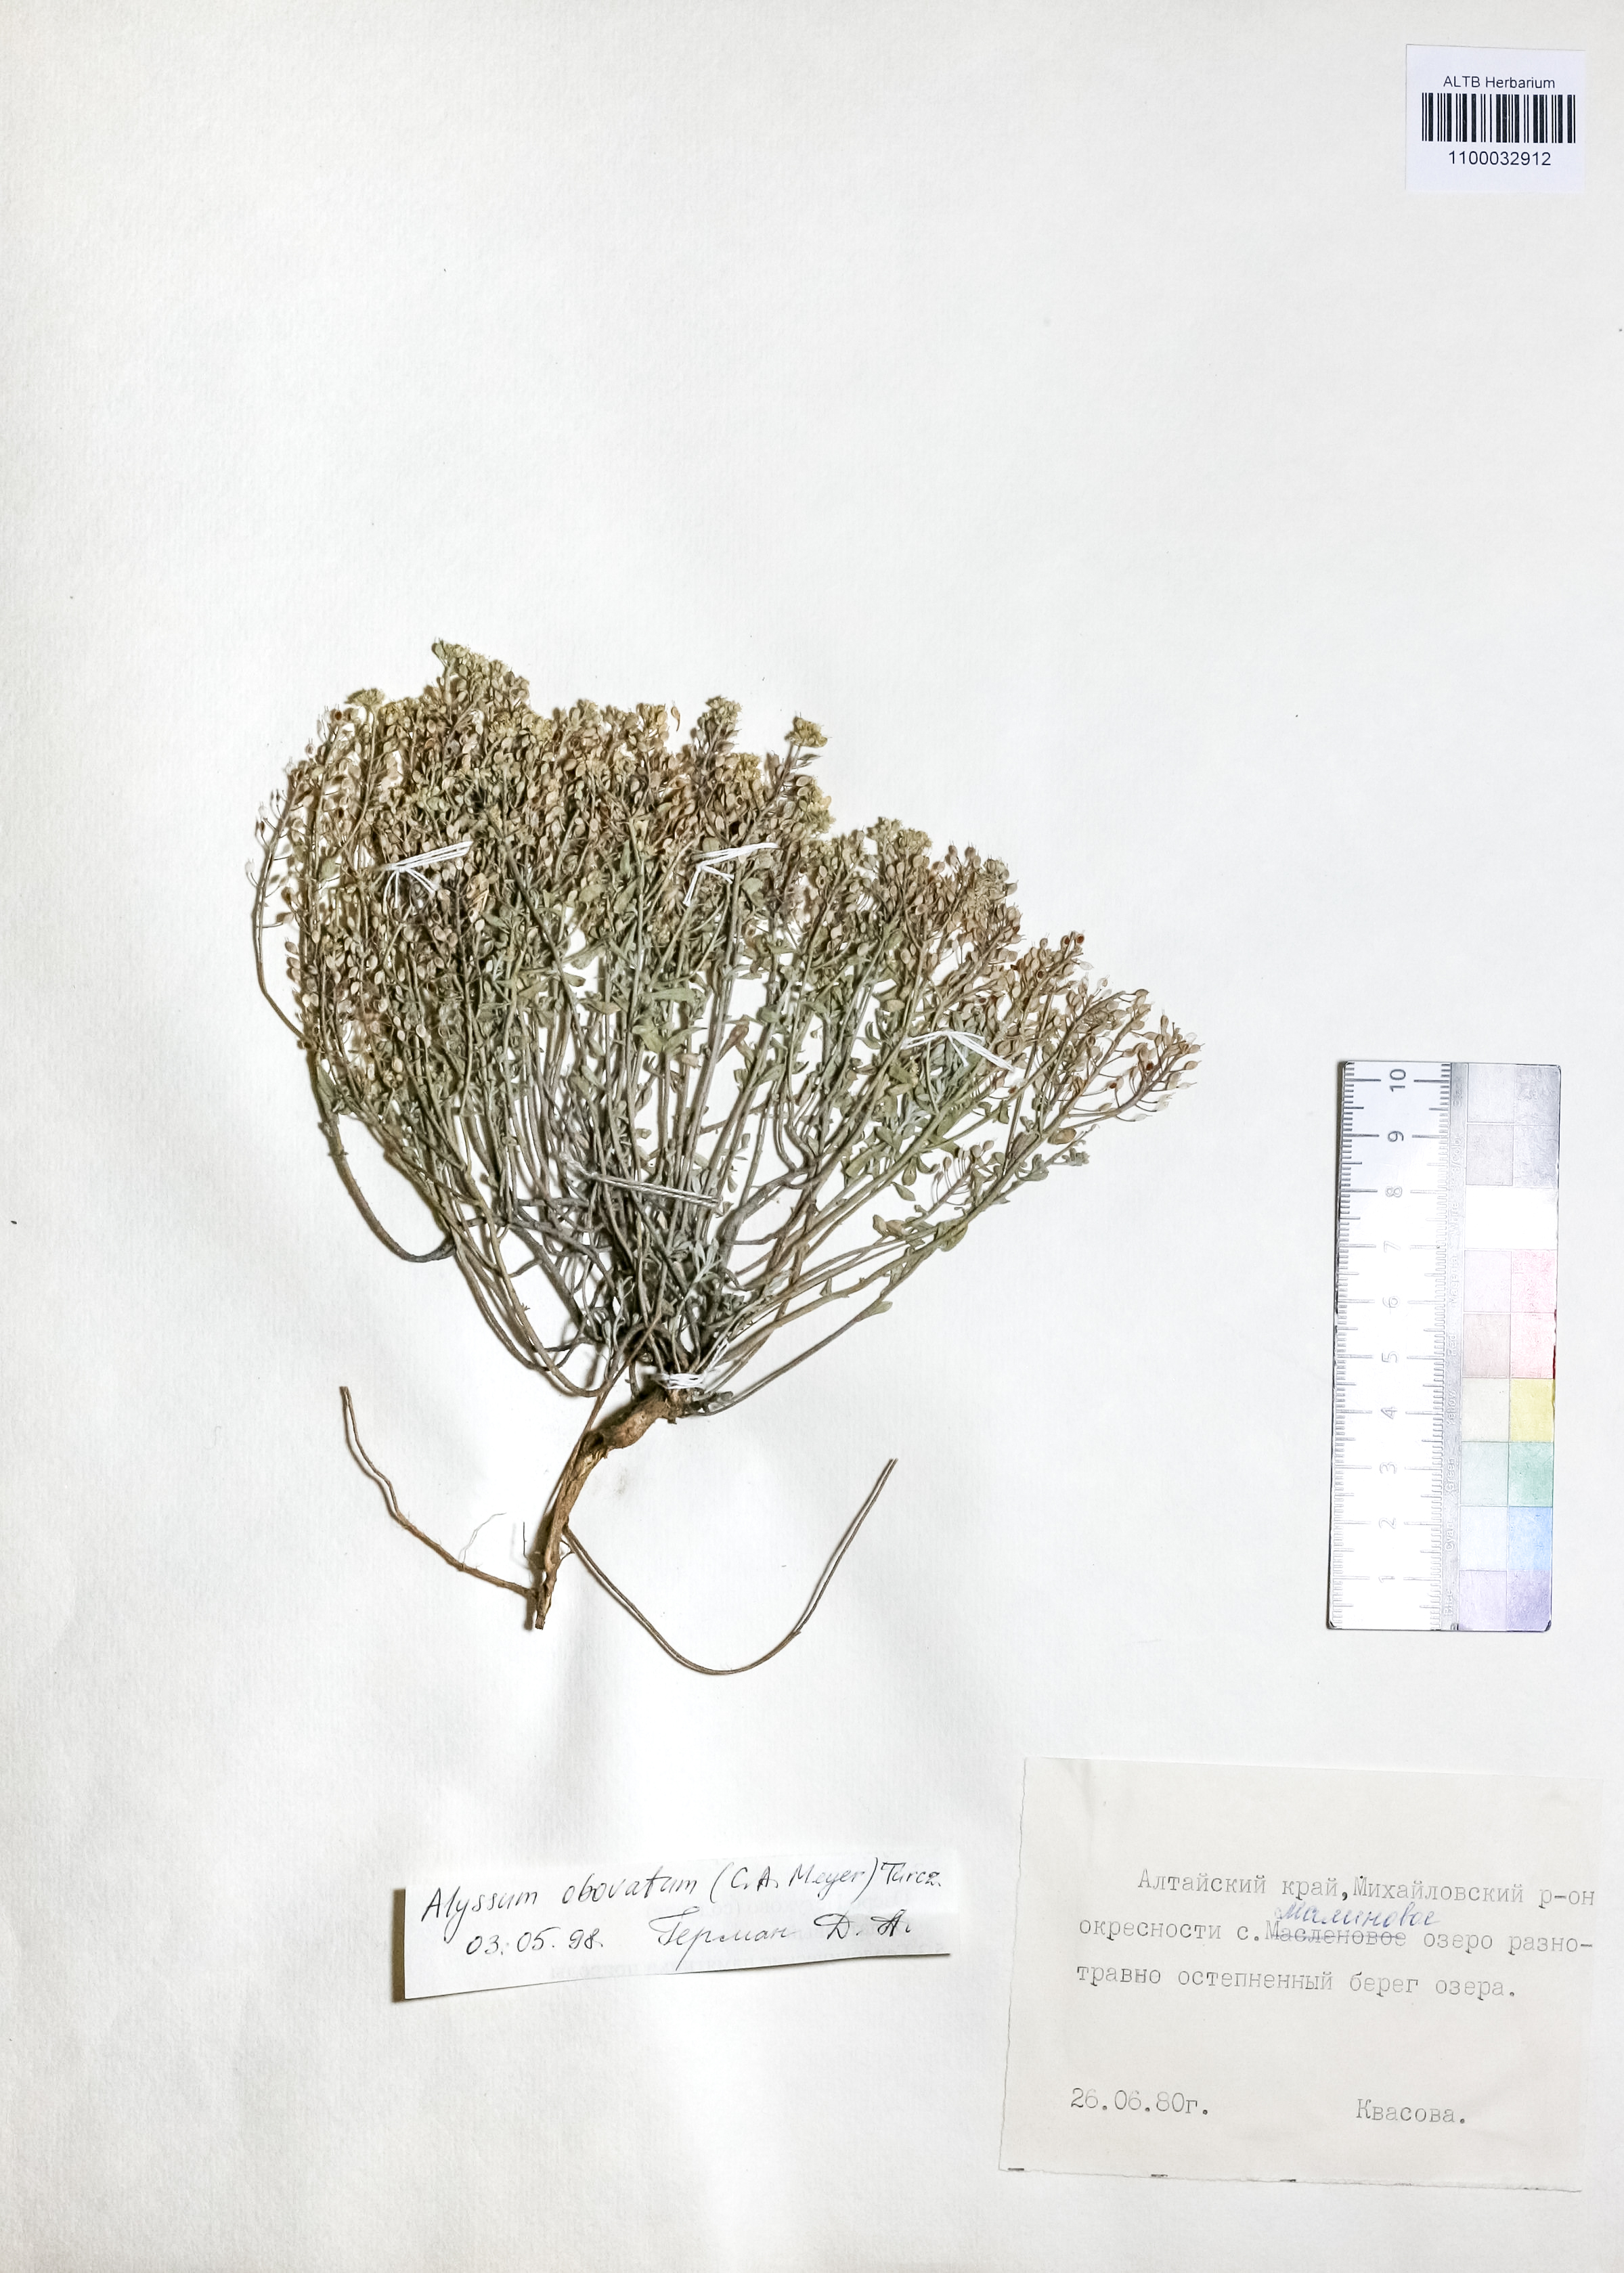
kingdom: Plantae
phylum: Tracheophyta
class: Magnoliopsida
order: Brassicales
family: Brassicaceae
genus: Odontarrhena
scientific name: Odontarrhena obovata
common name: American alyssum
